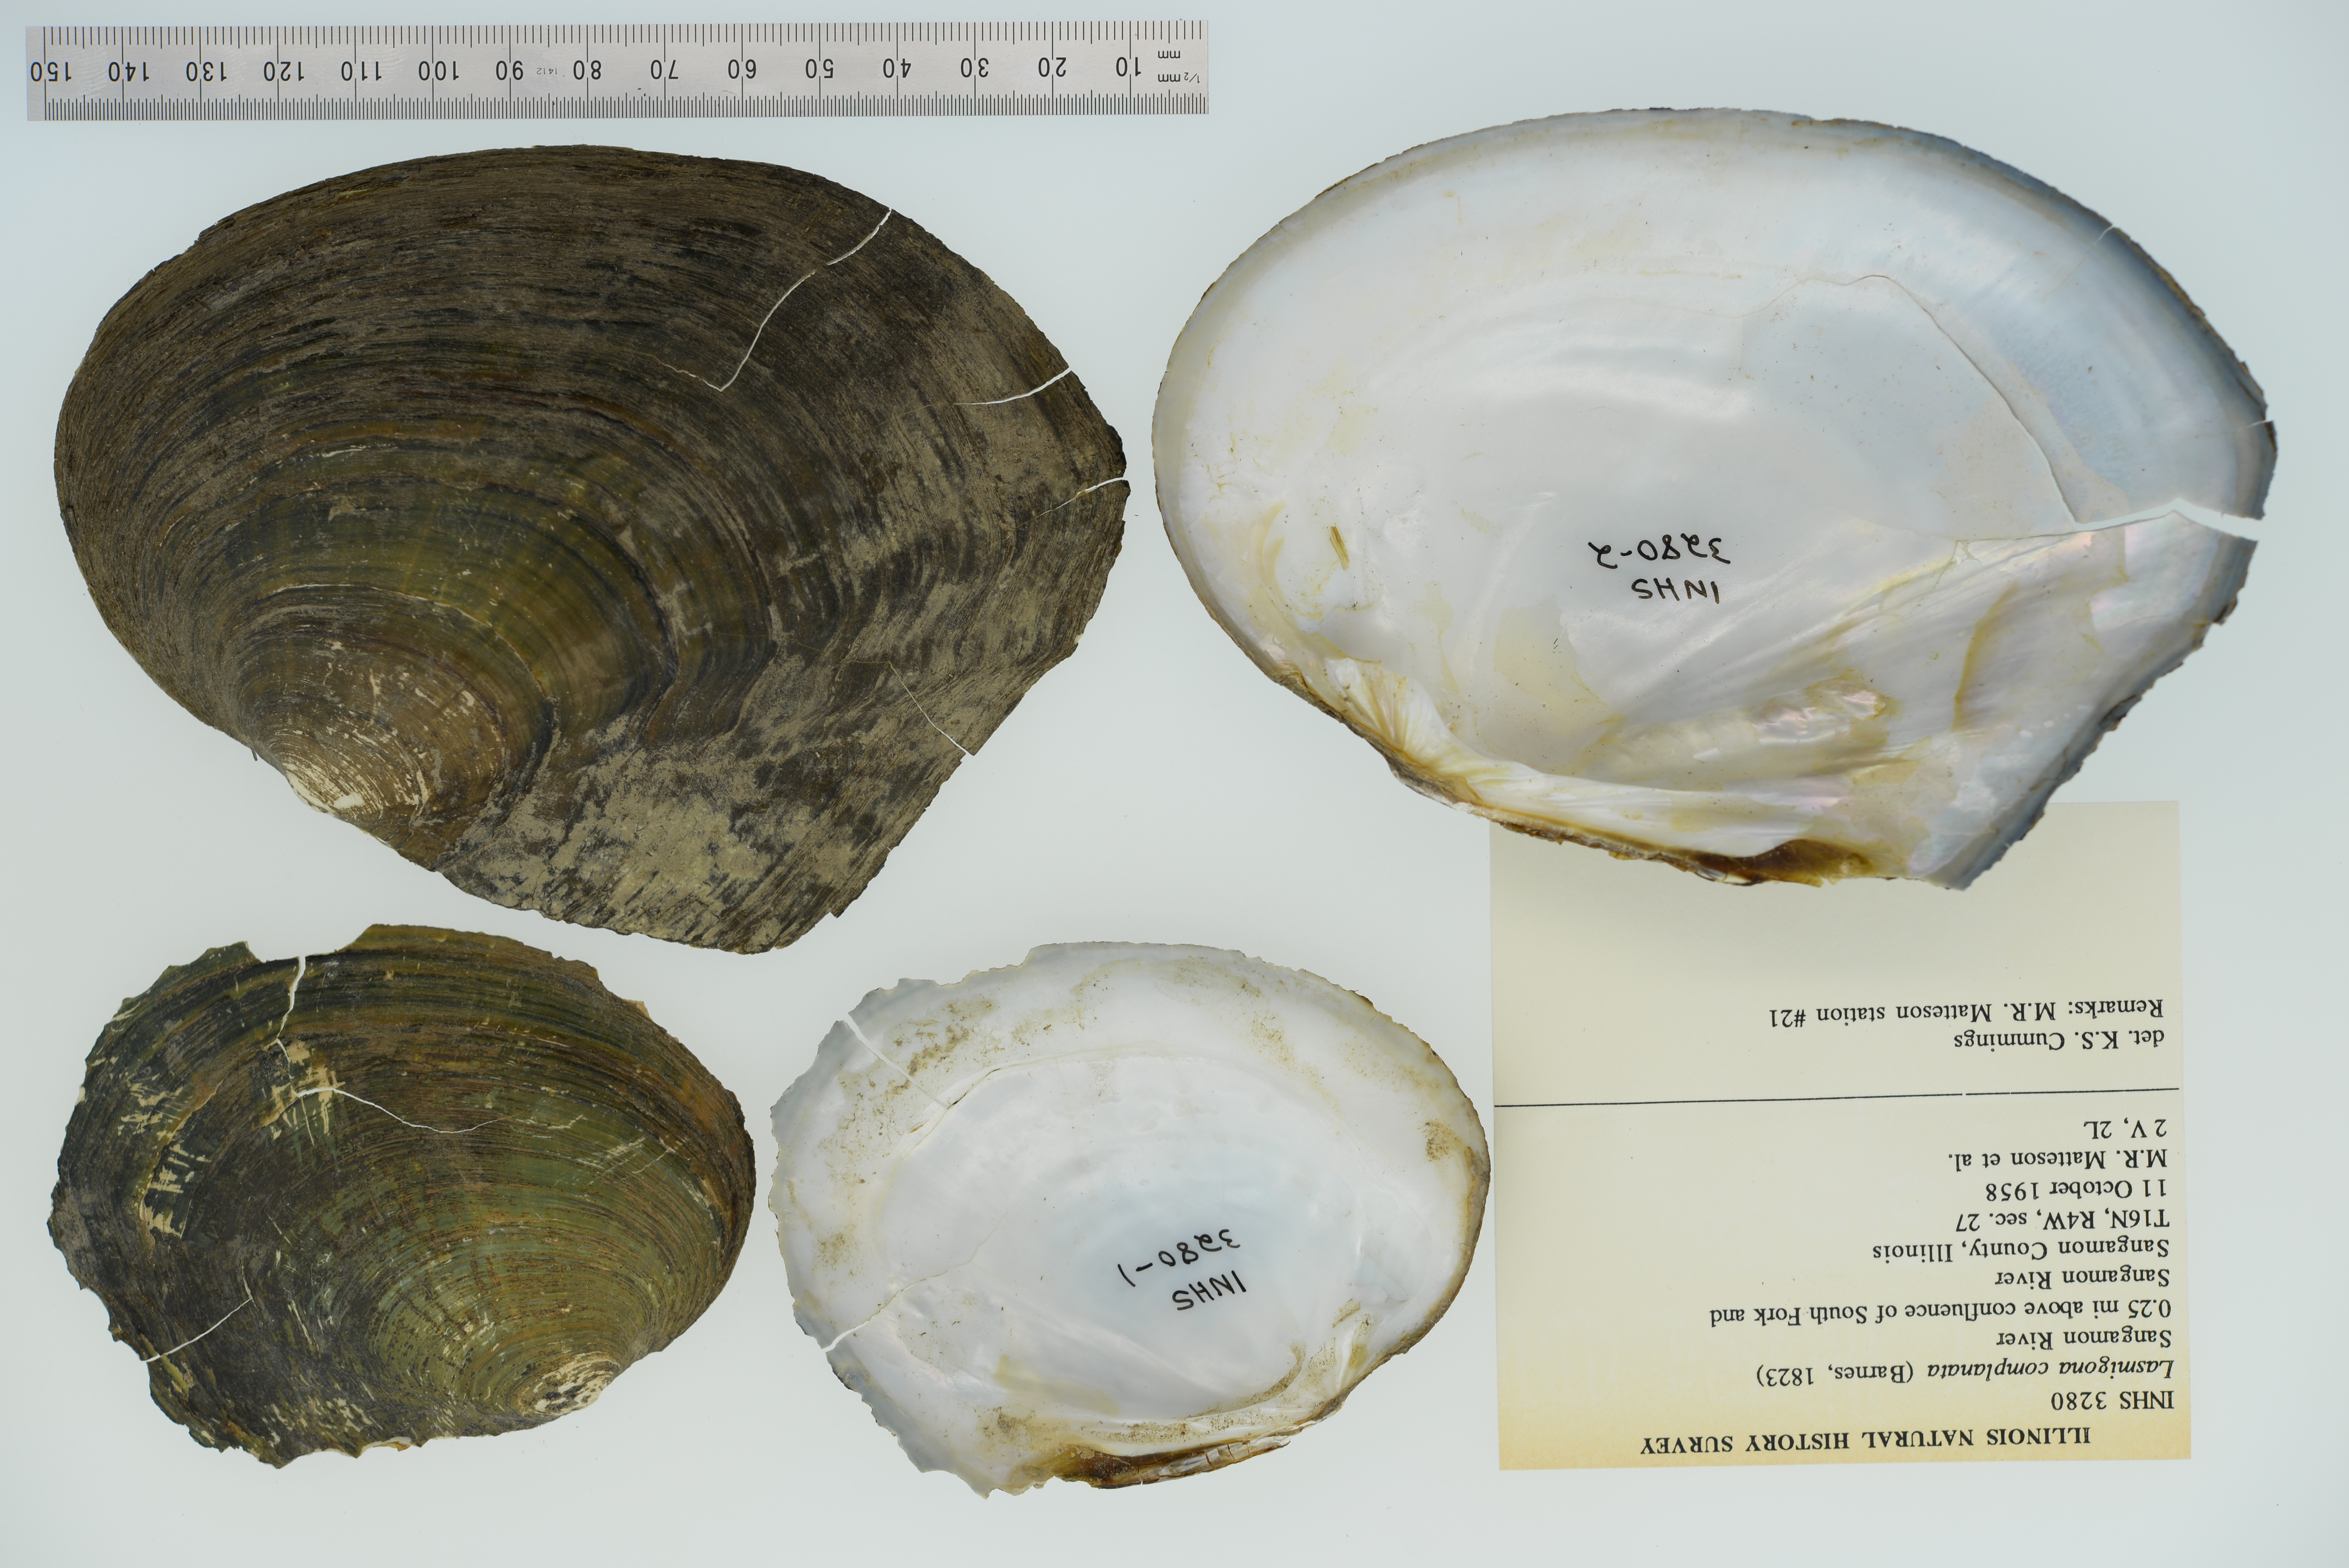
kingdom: Animalia
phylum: Mollusca
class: Bivalvia
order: Unionida
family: Unionidae
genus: Lasmigona
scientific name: Lasmigona complanata
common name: White heelsplitter
